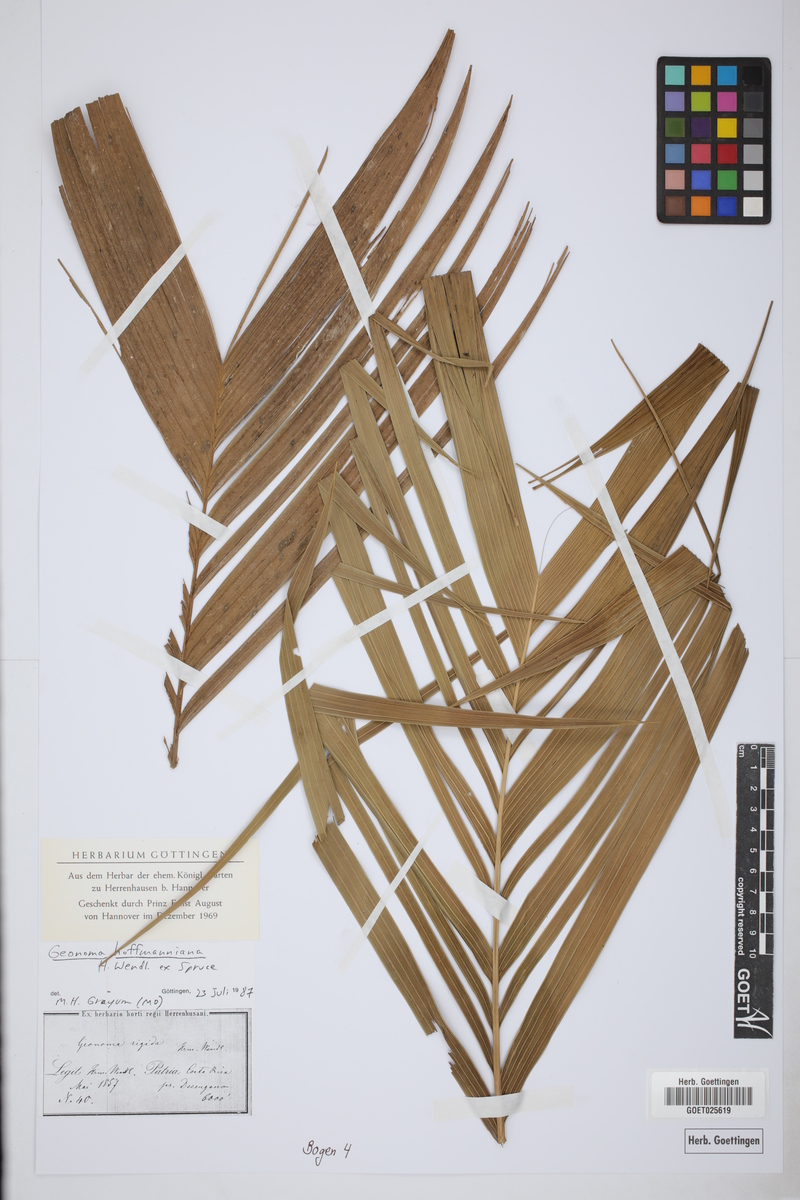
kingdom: Plantae
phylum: Tracheophyta
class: Liliopsida
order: Arecales
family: Arecaceae
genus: Geonoma
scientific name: Geonoma orbignyana
